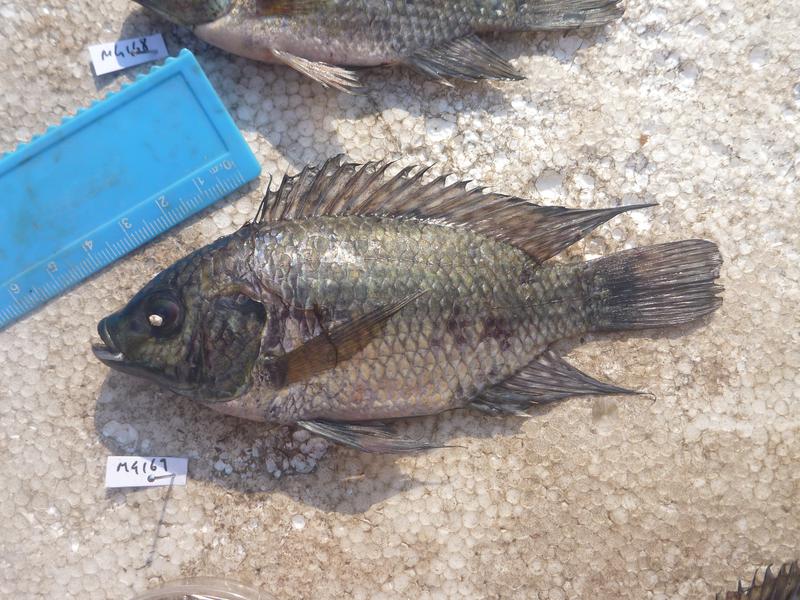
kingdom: Animalia
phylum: Chordata
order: Perciformes
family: Cichlidae
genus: Oreochromis
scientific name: Oreochromis leucostictus
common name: Blue spotted tilapia
